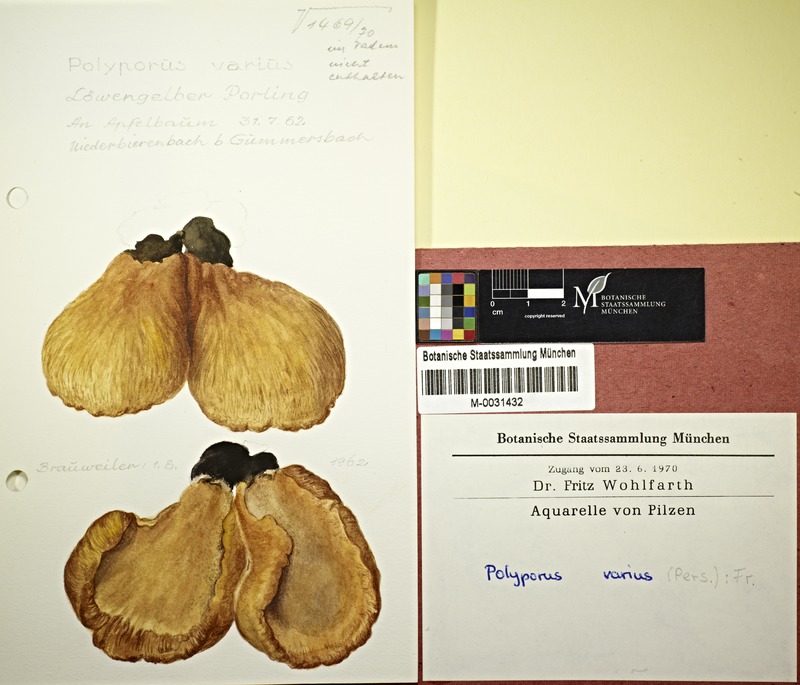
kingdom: Fungi
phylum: Basidiomycota
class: Agaricomycetes
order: Polyporales
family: Polyporaceae
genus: Polyporus
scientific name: Polyporus varius
